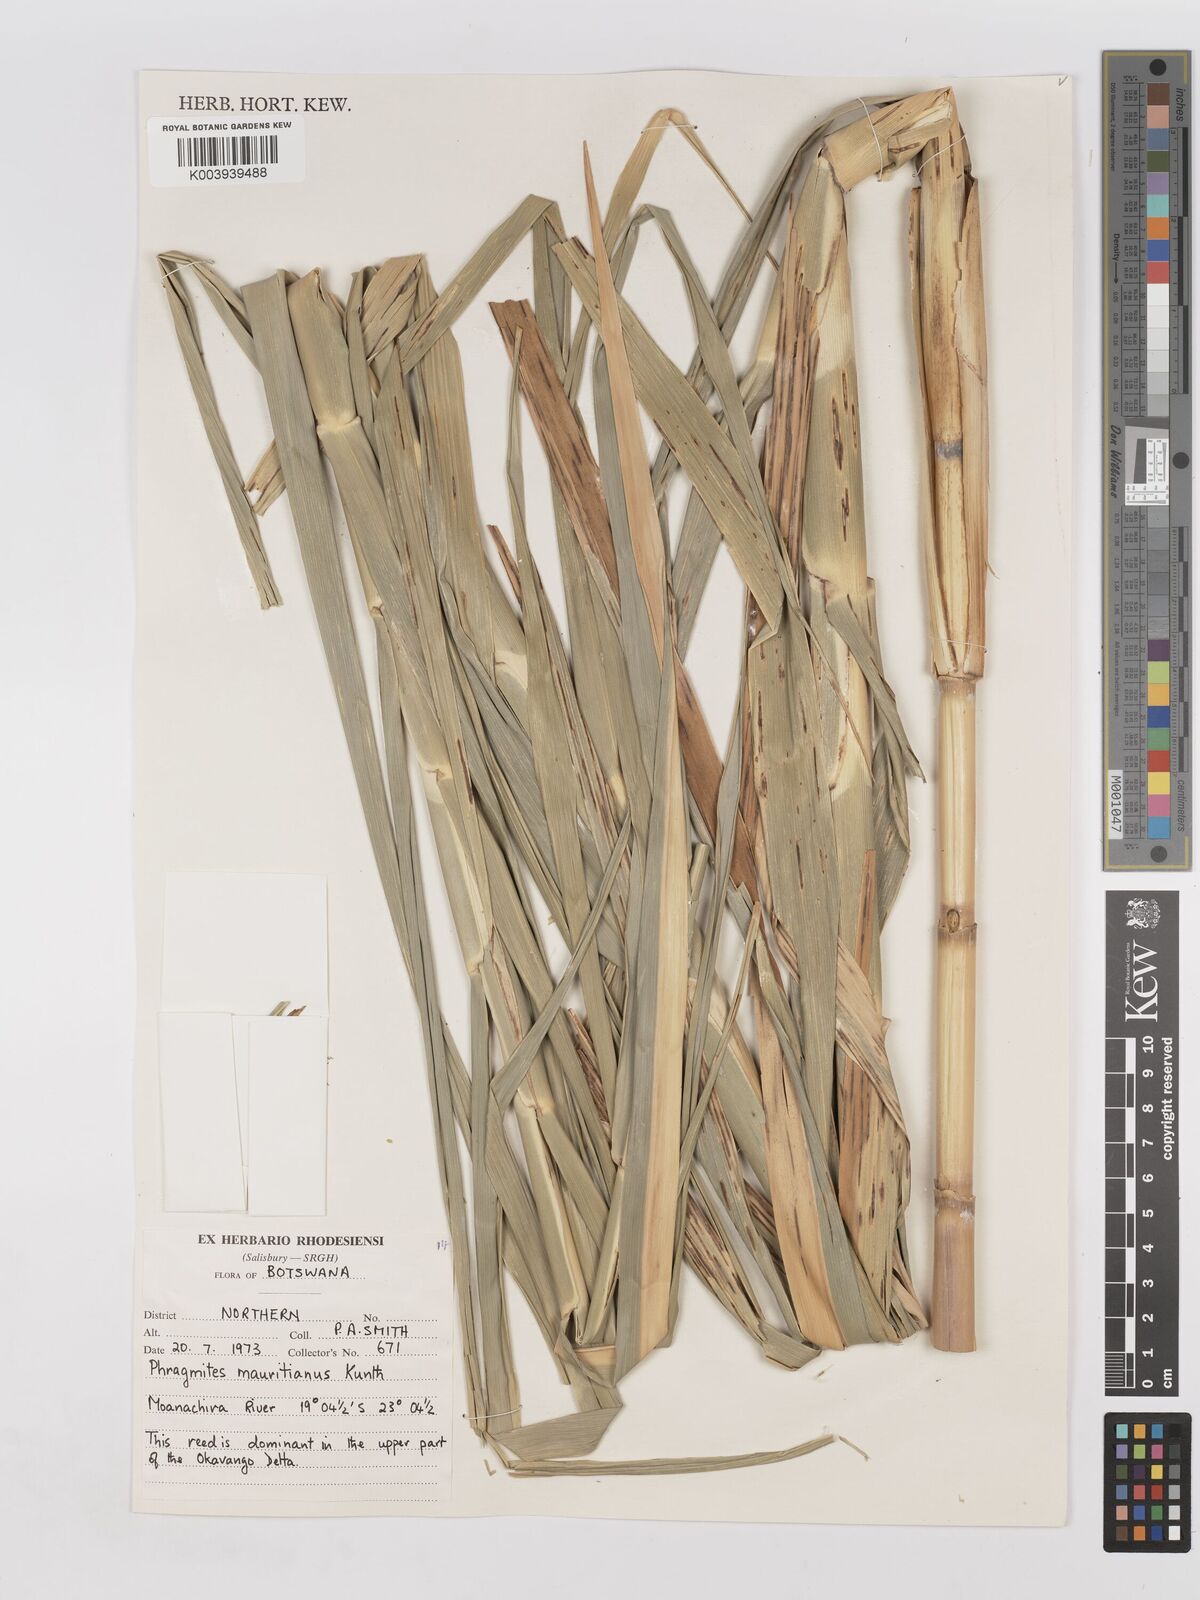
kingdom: Plantae
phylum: Tracheophyta
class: Liliopsida
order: Poales
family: Poaceae
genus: Phragmites
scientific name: Phragmites mauritianus
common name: Reed grass
